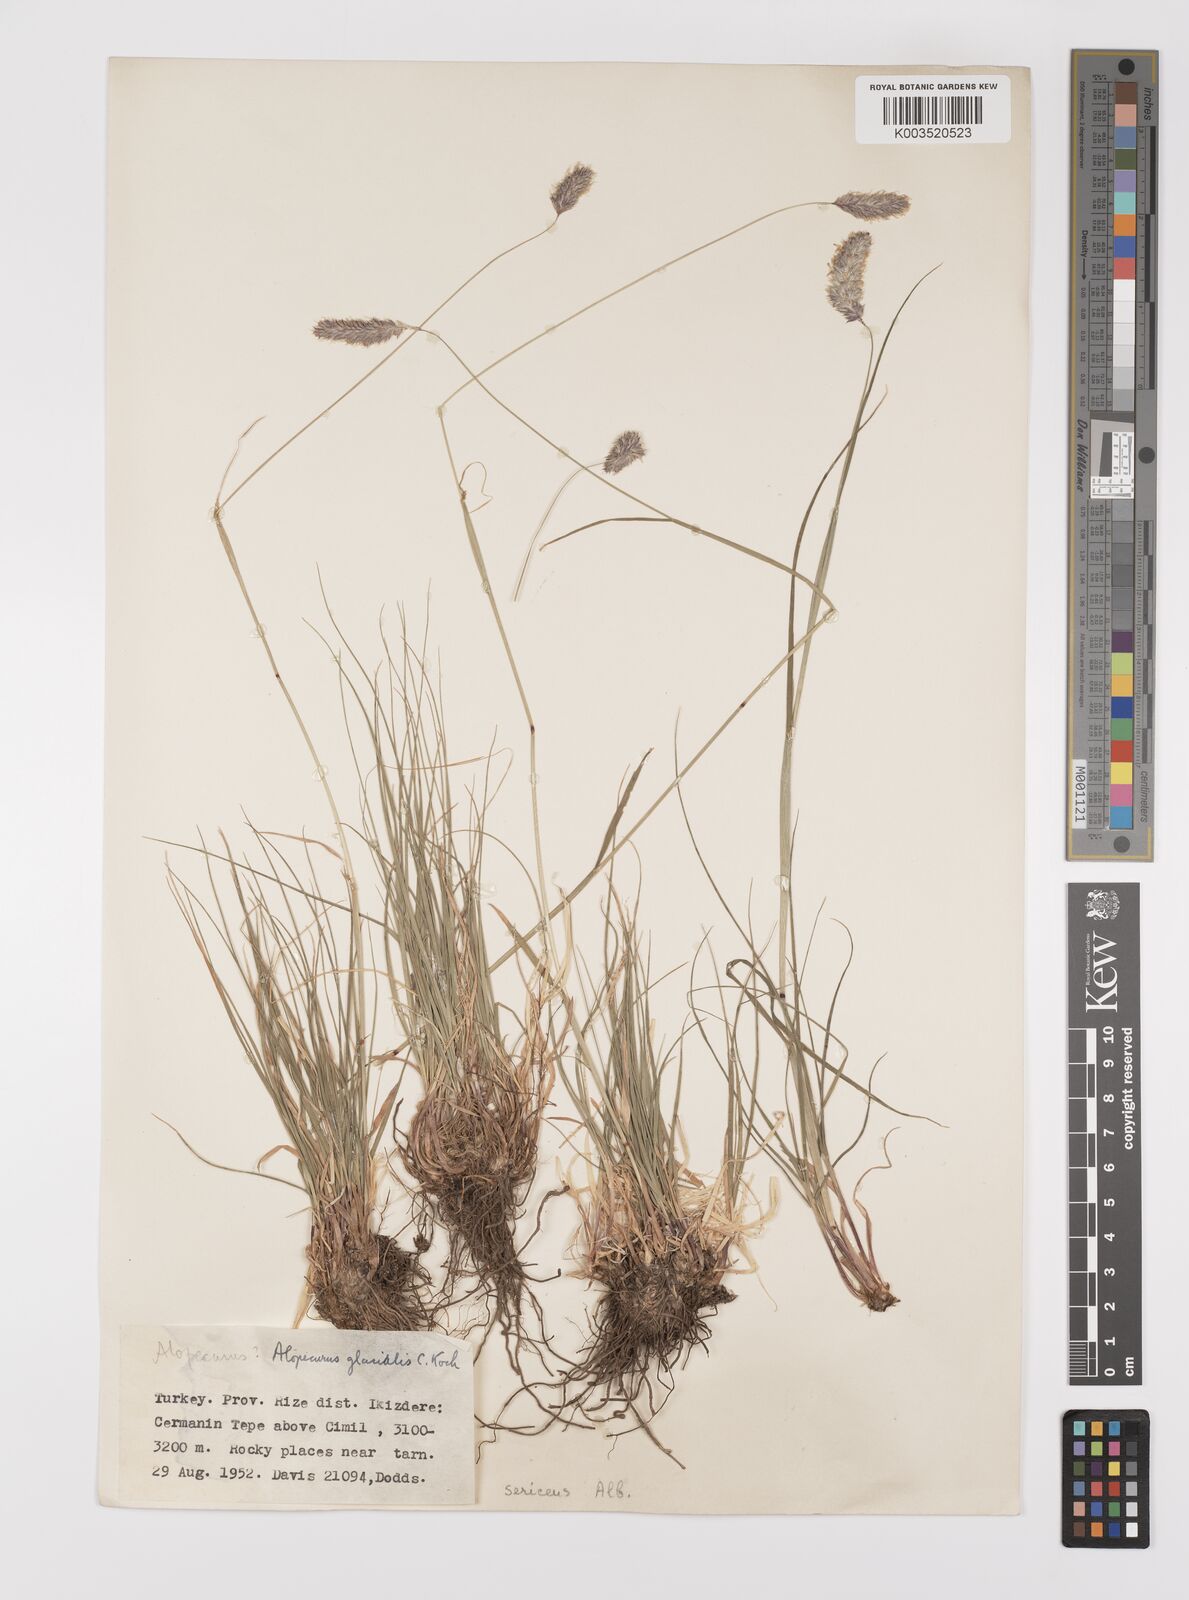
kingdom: Plantae
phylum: Tracheophyta
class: Liliopsida
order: Poales
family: Poaceae
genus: Alopecurus
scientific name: Alopecurus glacialis
